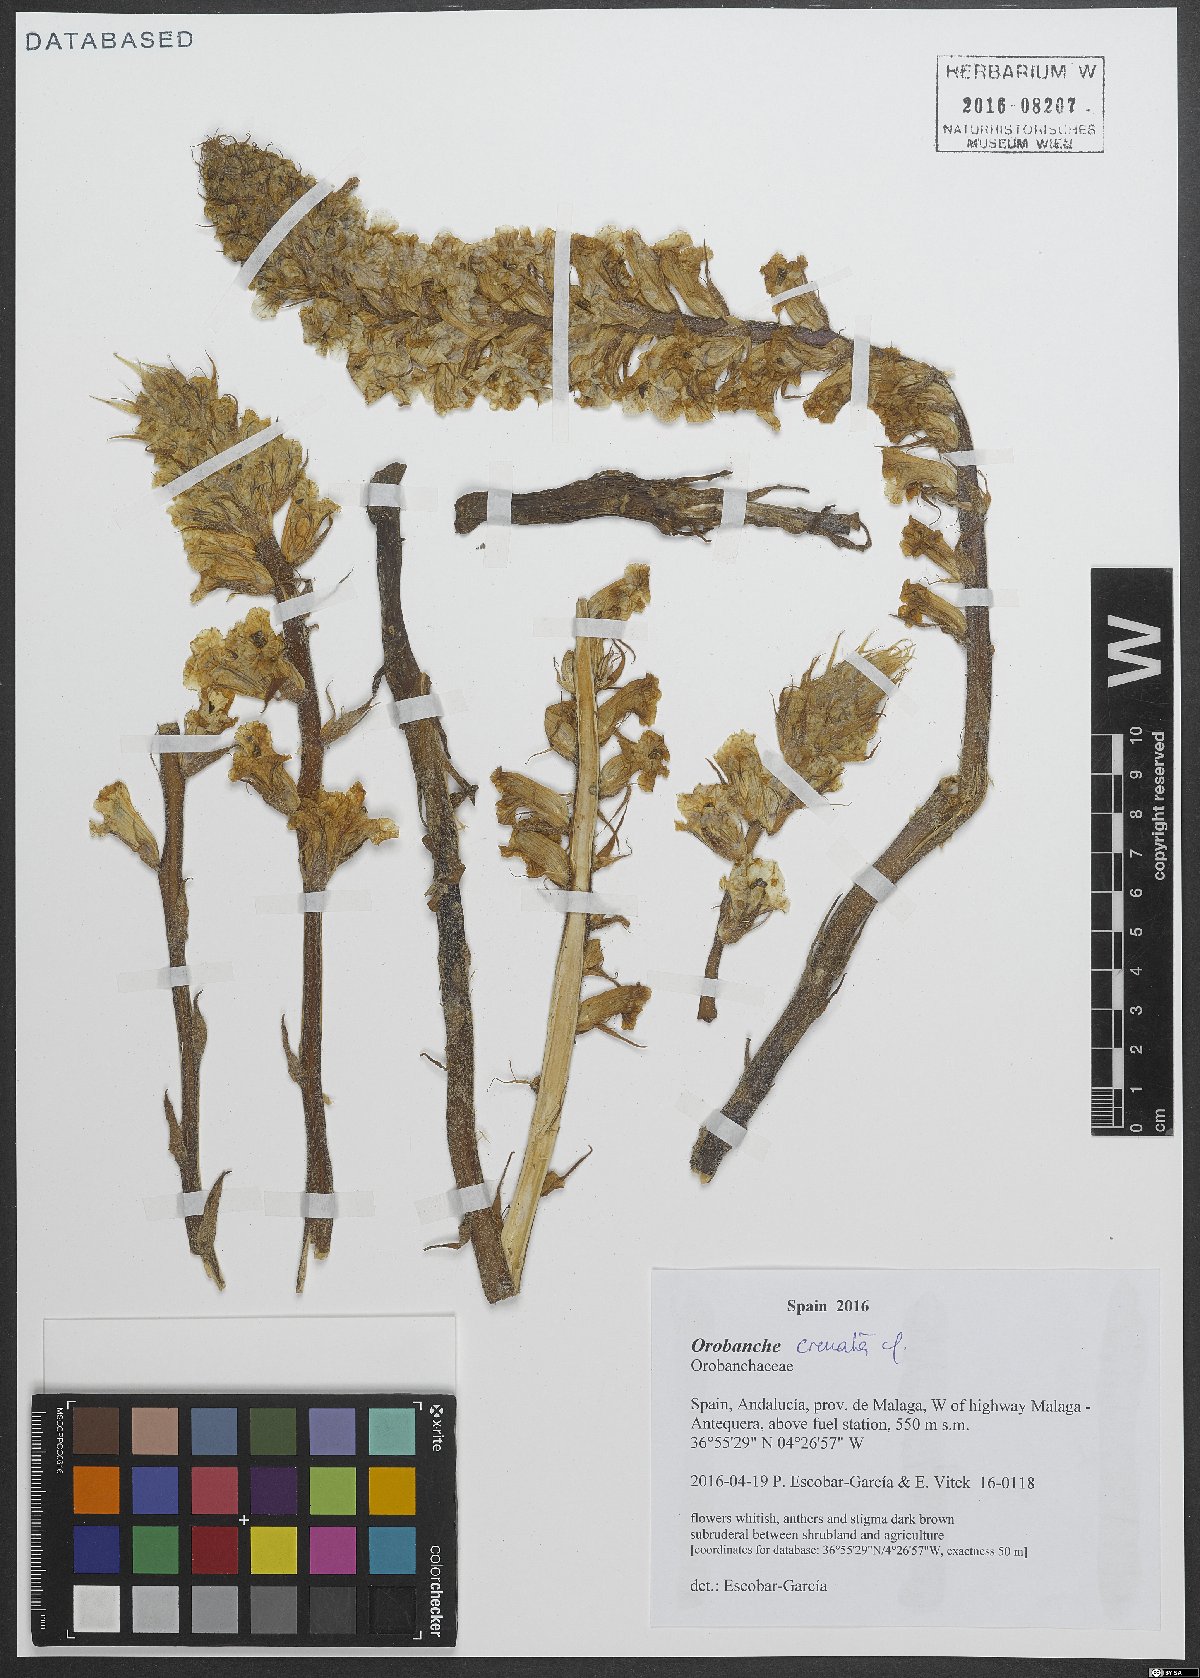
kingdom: Plantae
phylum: Tracheophyta
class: Magnoliopsida
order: Lamiales
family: Orobanchaceae
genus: Orobanche
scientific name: Orobanche crenata
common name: Bean broomrape
